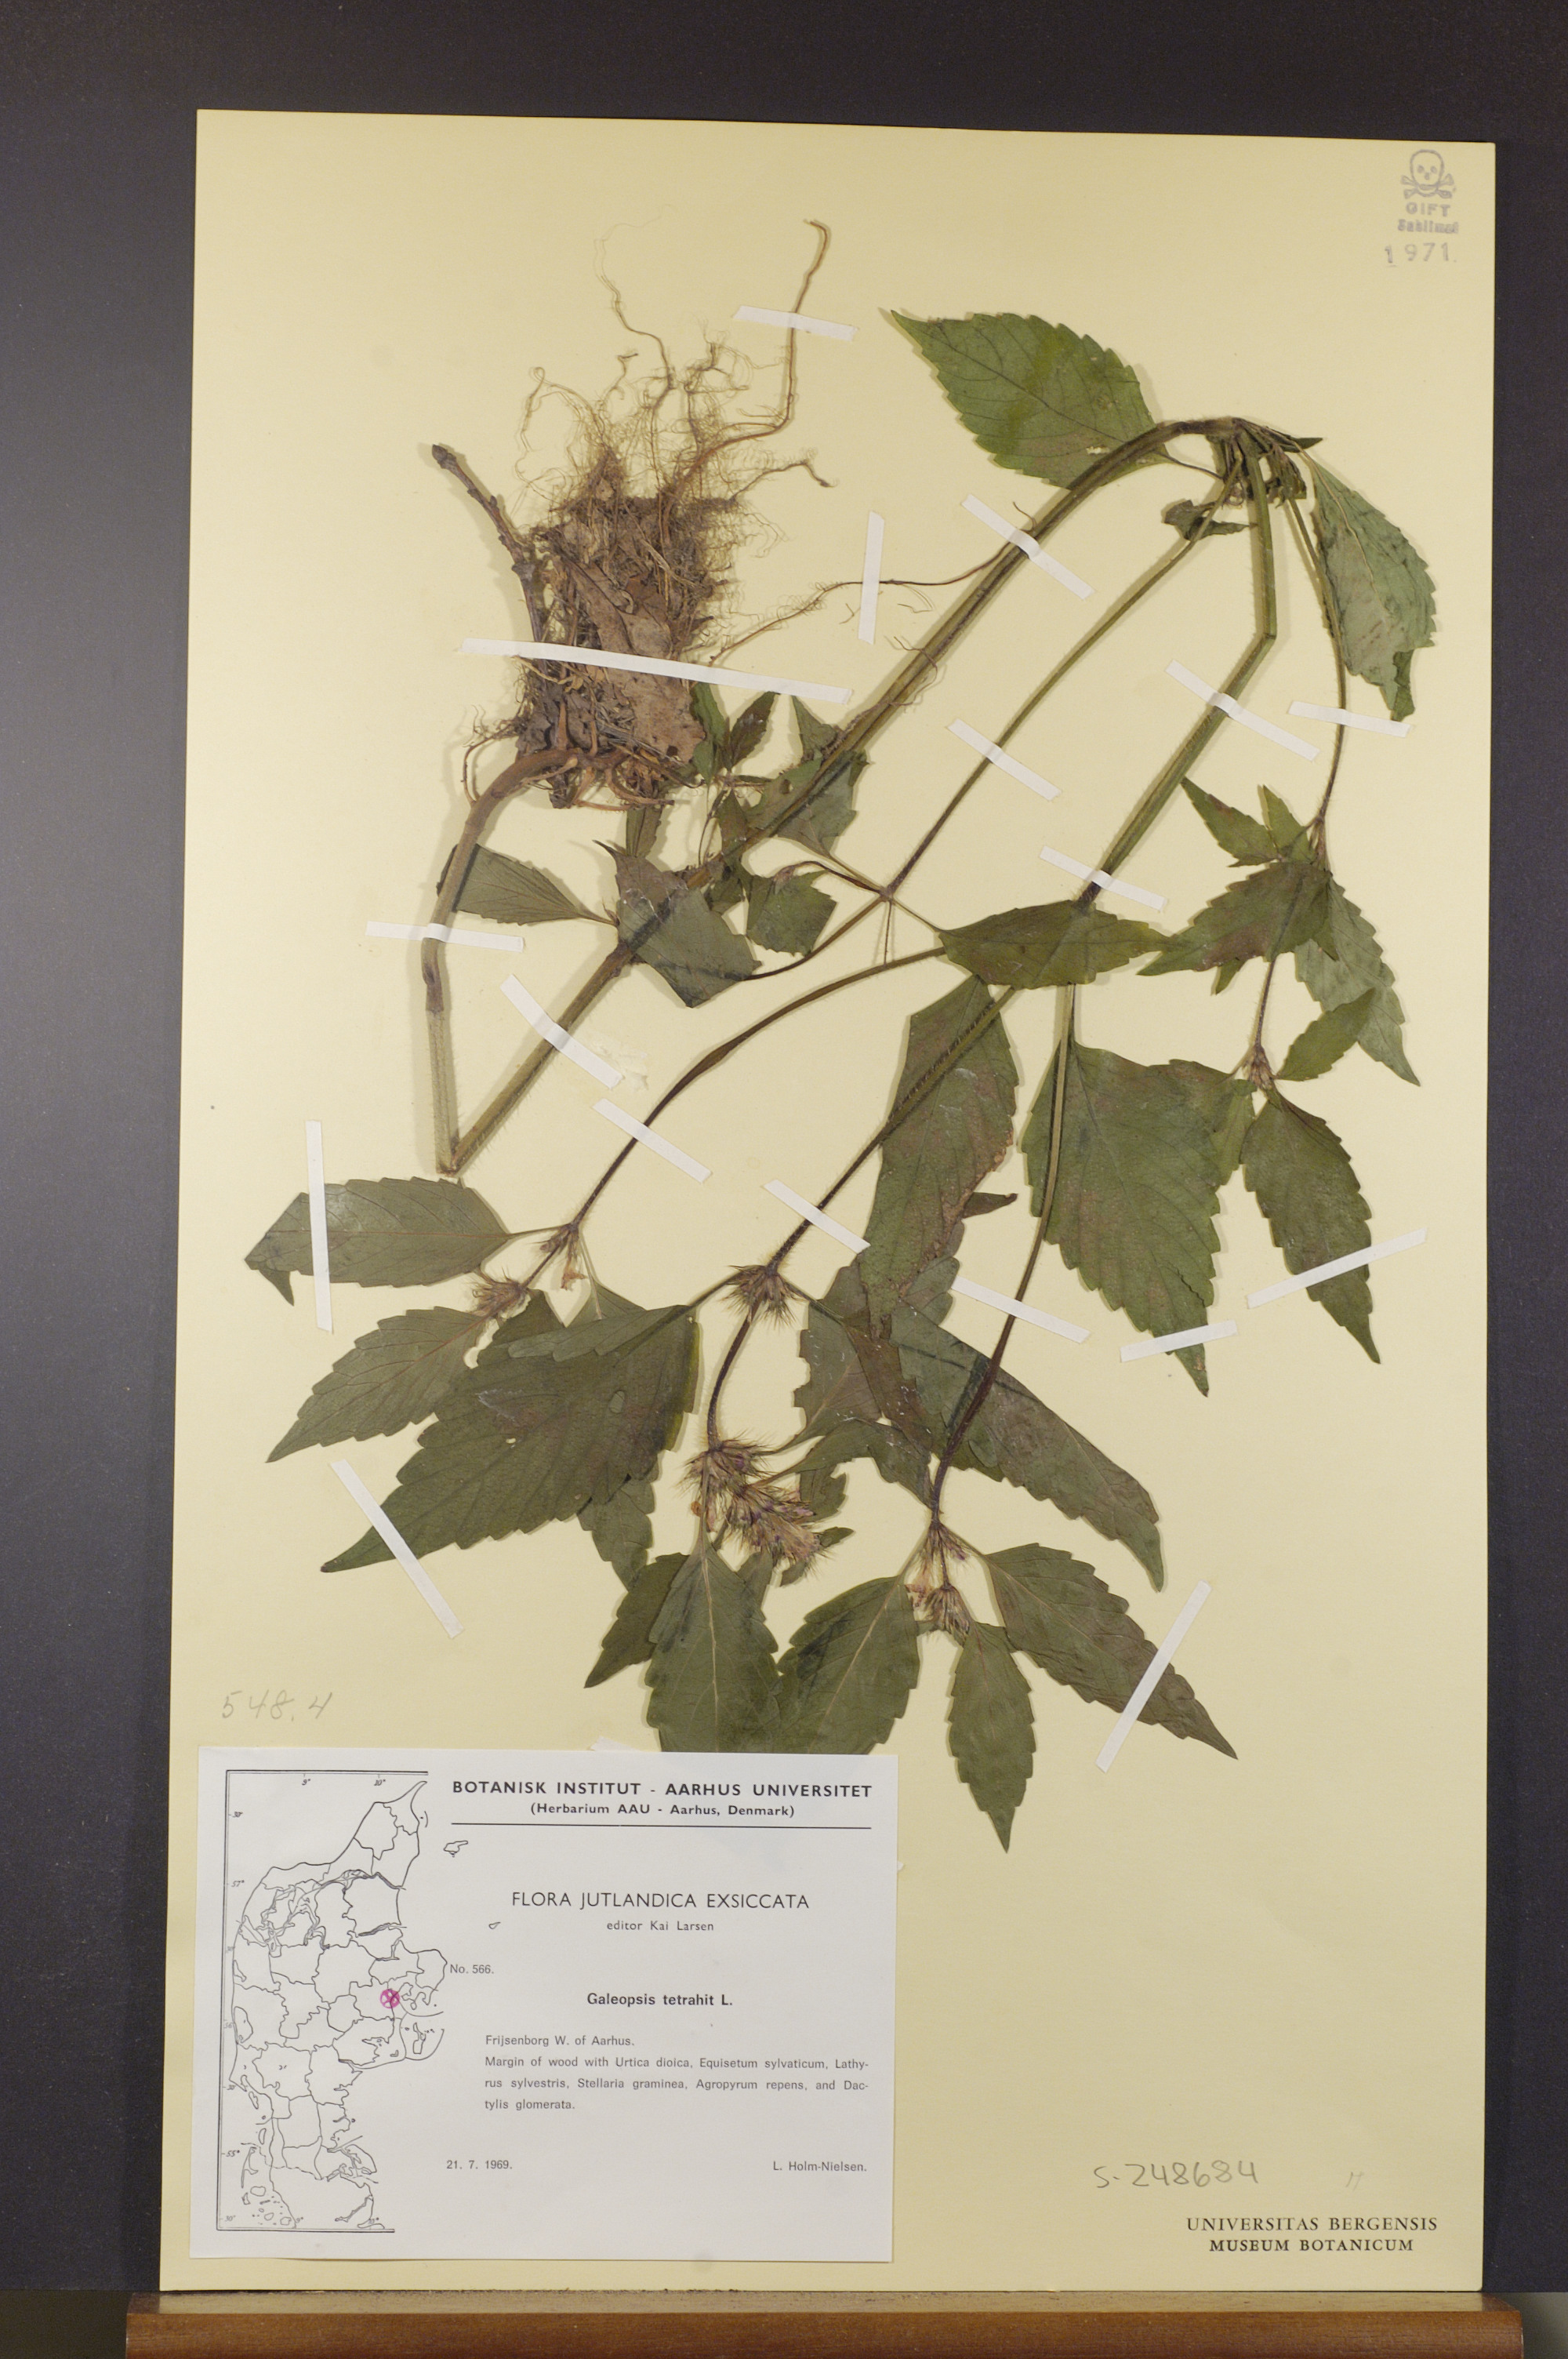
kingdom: Plantae
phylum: Tracheophyta
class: Magnoliopsida
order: Lamiales
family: Lamiaceae
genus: Galeopsis
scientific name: Galeopsis tetrahit
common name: Common hemp-nettle
